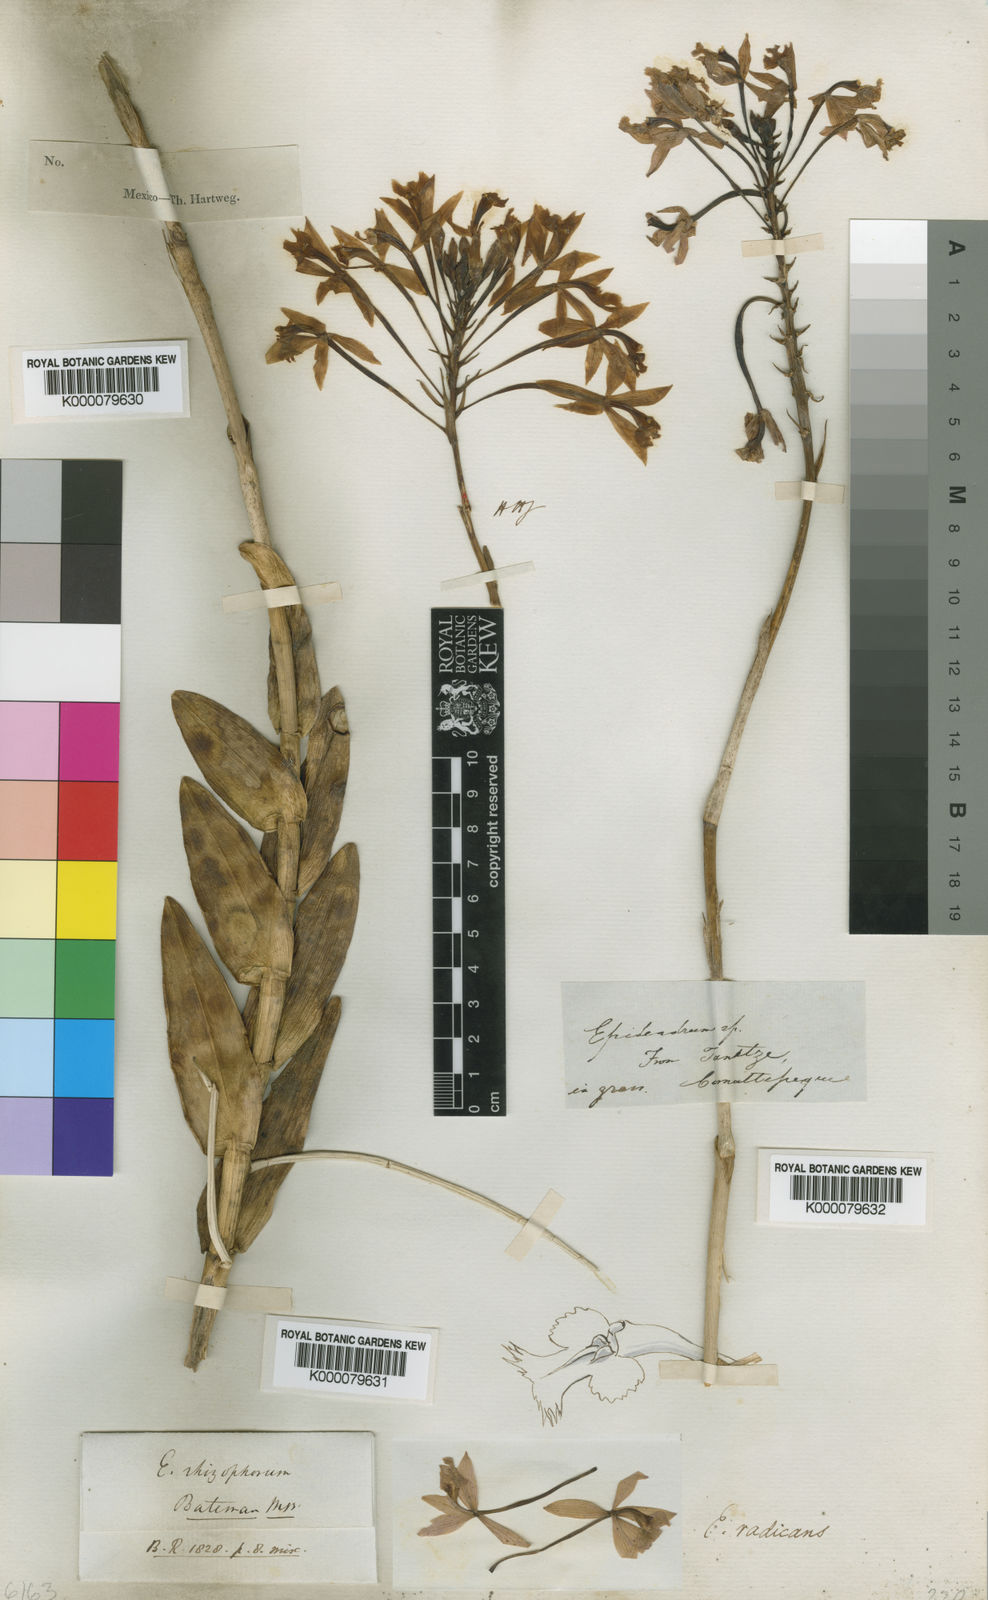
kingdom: Plantae
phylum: Tracheophyta
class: Liliopsida
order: Asparagales
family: Orchidaceae
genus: Epidendrum
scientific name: Epidendrum radicans
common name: Fire star orchid
